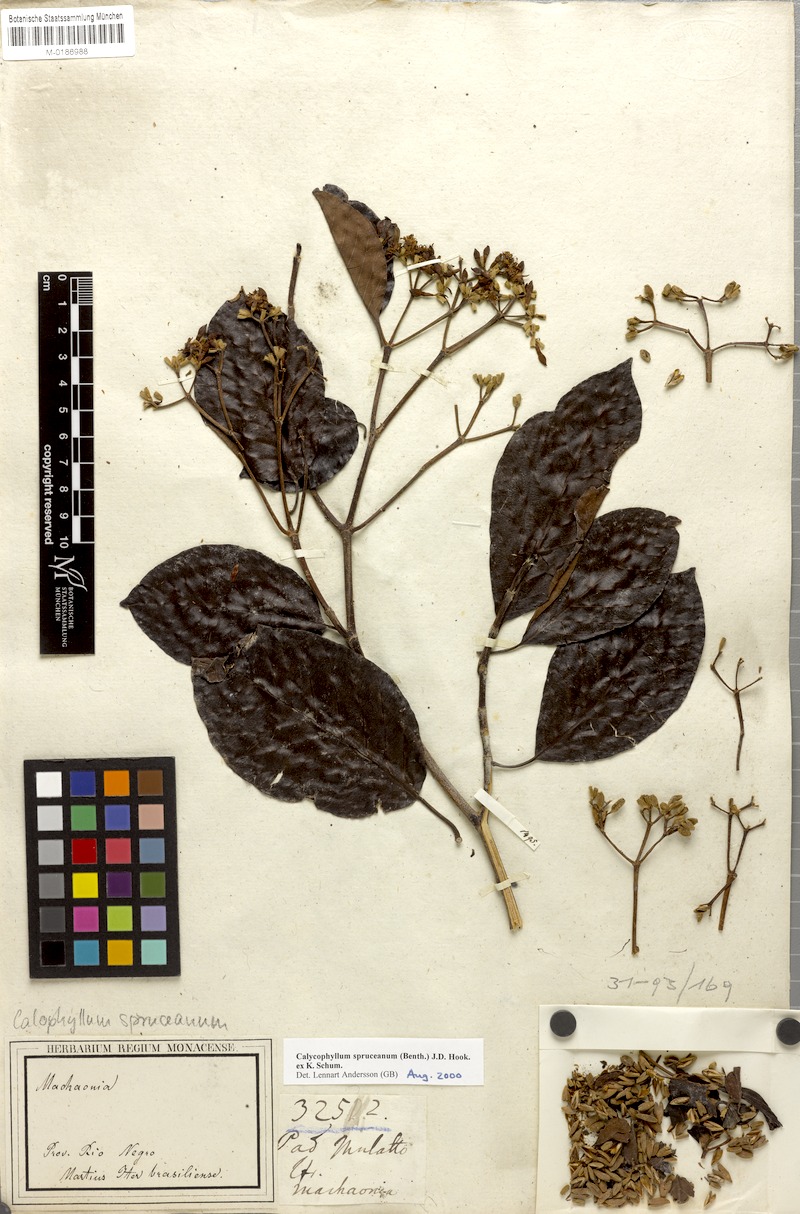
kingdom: Plantae
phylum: Tracheophyta
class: Magnoliopsida
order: Gentianales
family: Rubiaceae
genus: Calycophyllum
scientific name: Calycophyllum spruceanum
